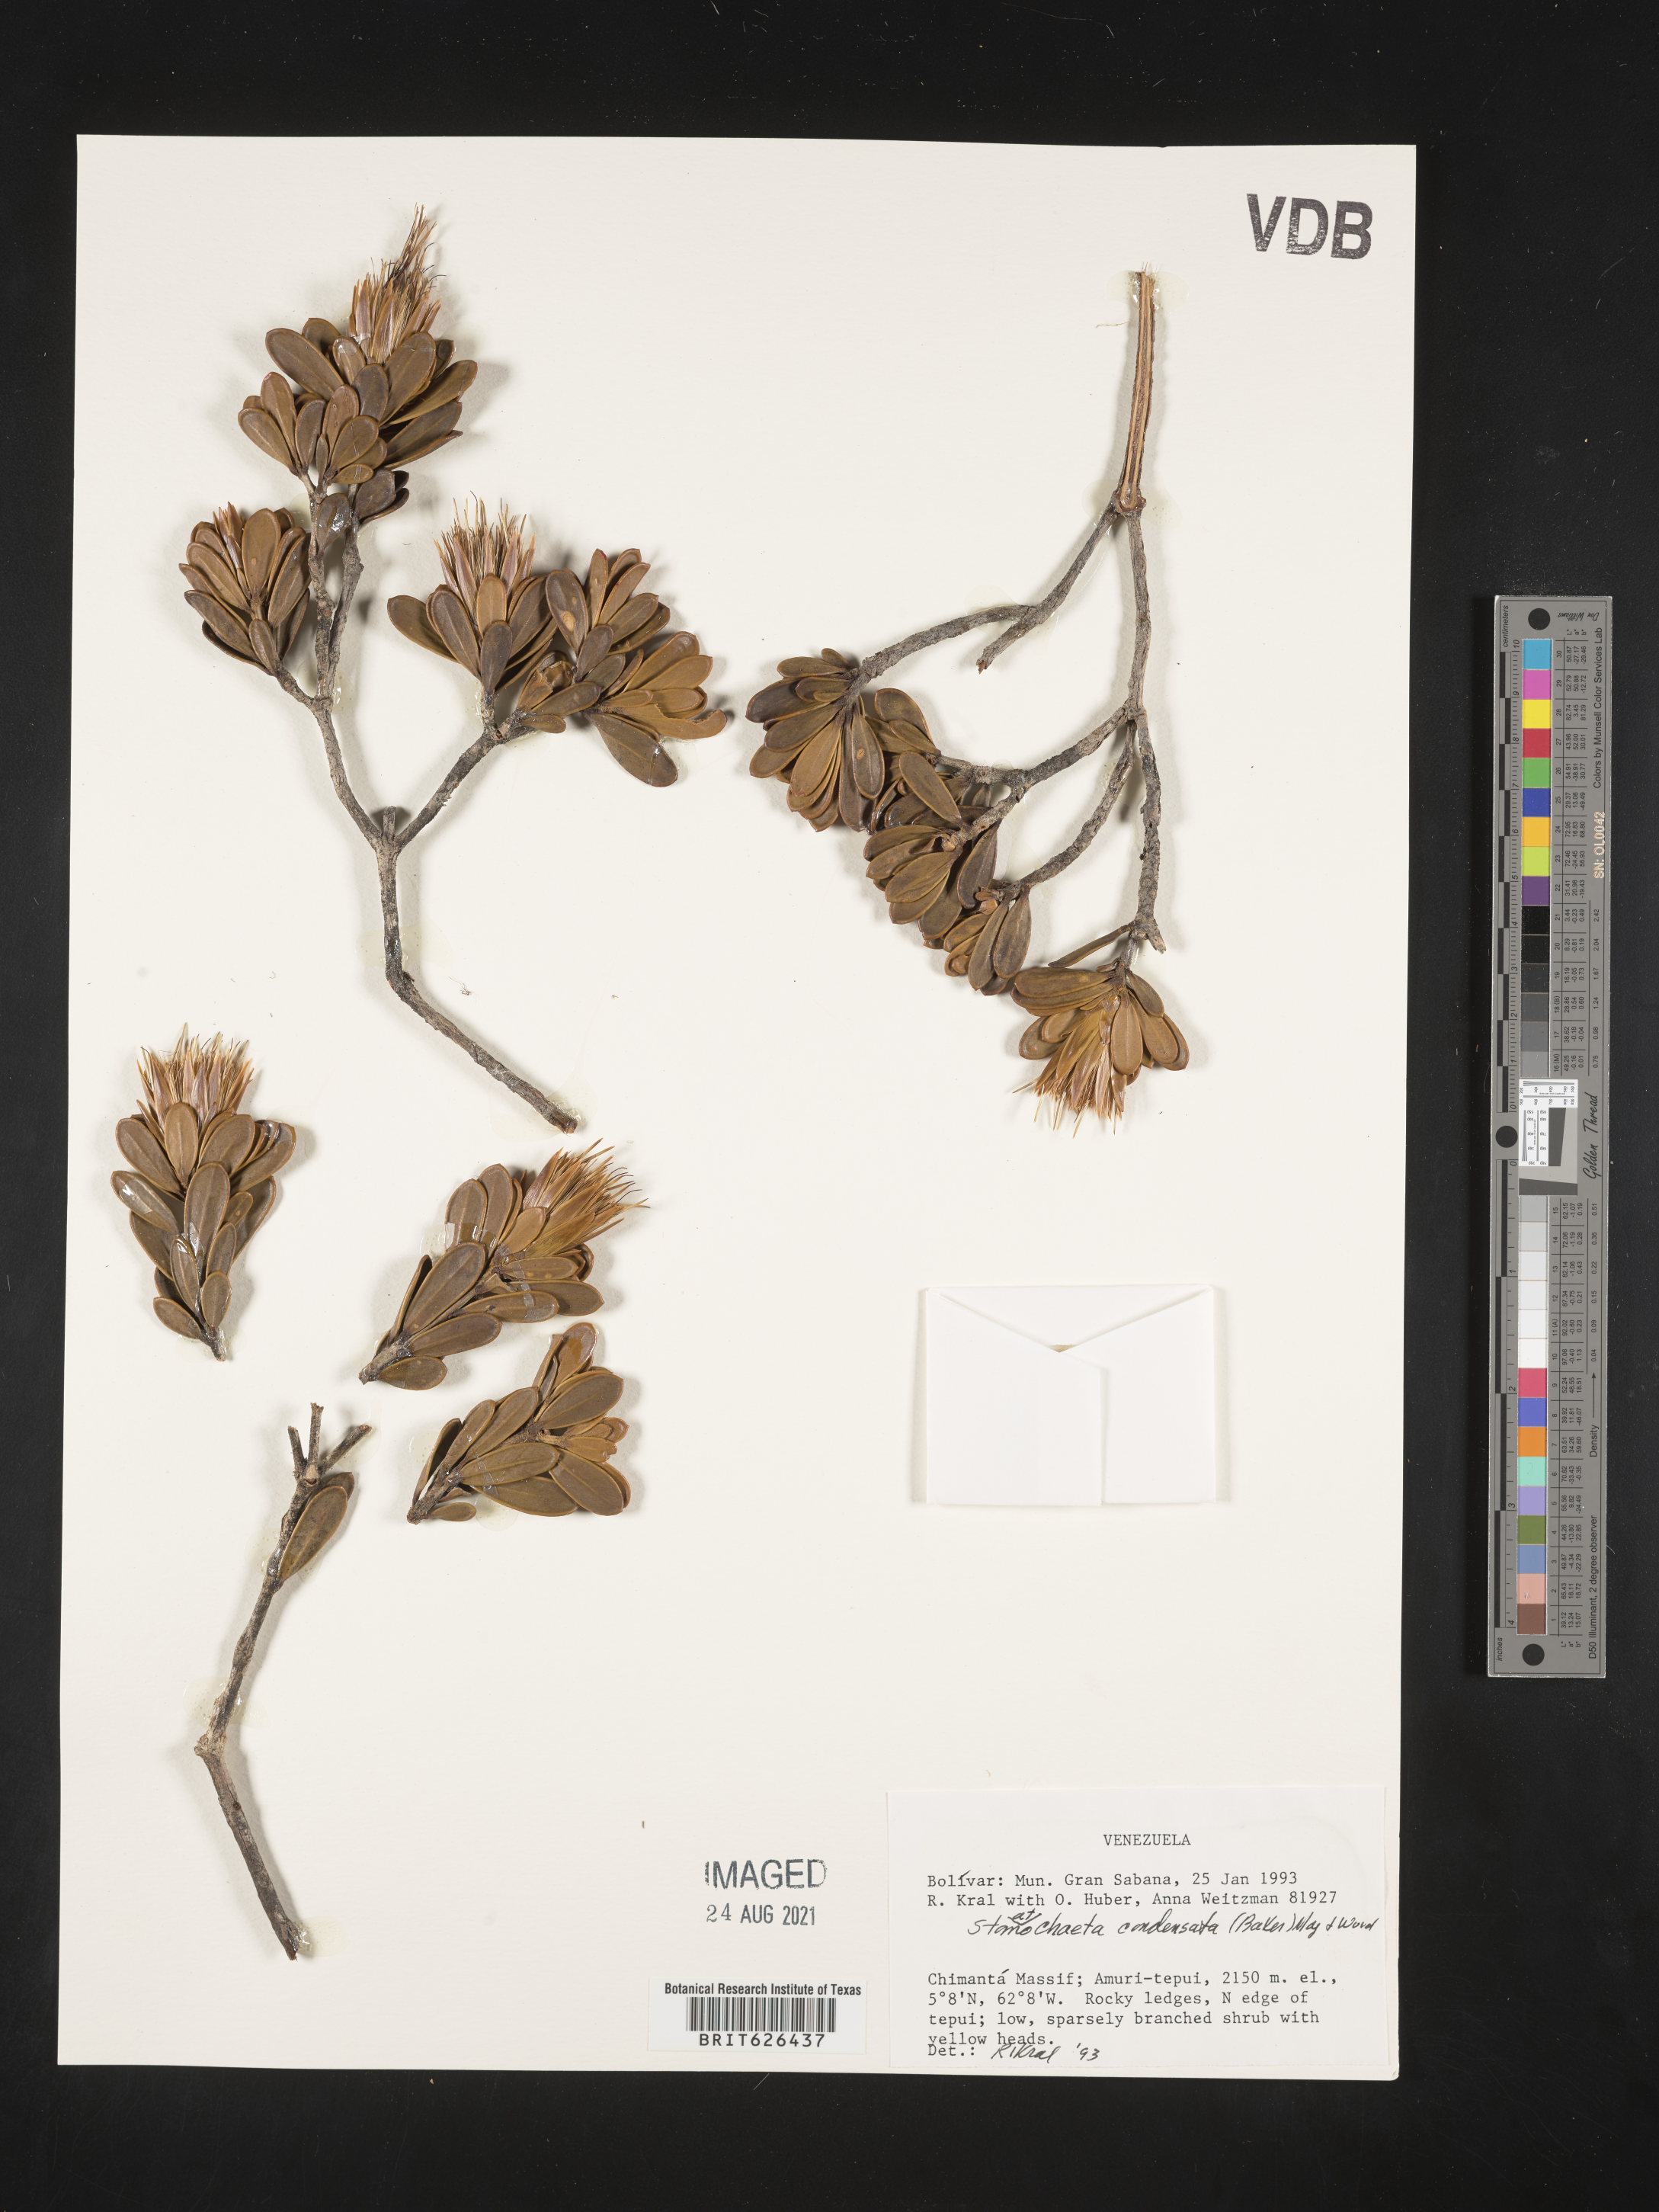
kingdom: Plantae
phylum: Tracheophyta
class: Magnoliopsida
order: Asterales
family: Asteraceae
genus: Stomatochaeta
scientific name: Stomatochaeta condensata
